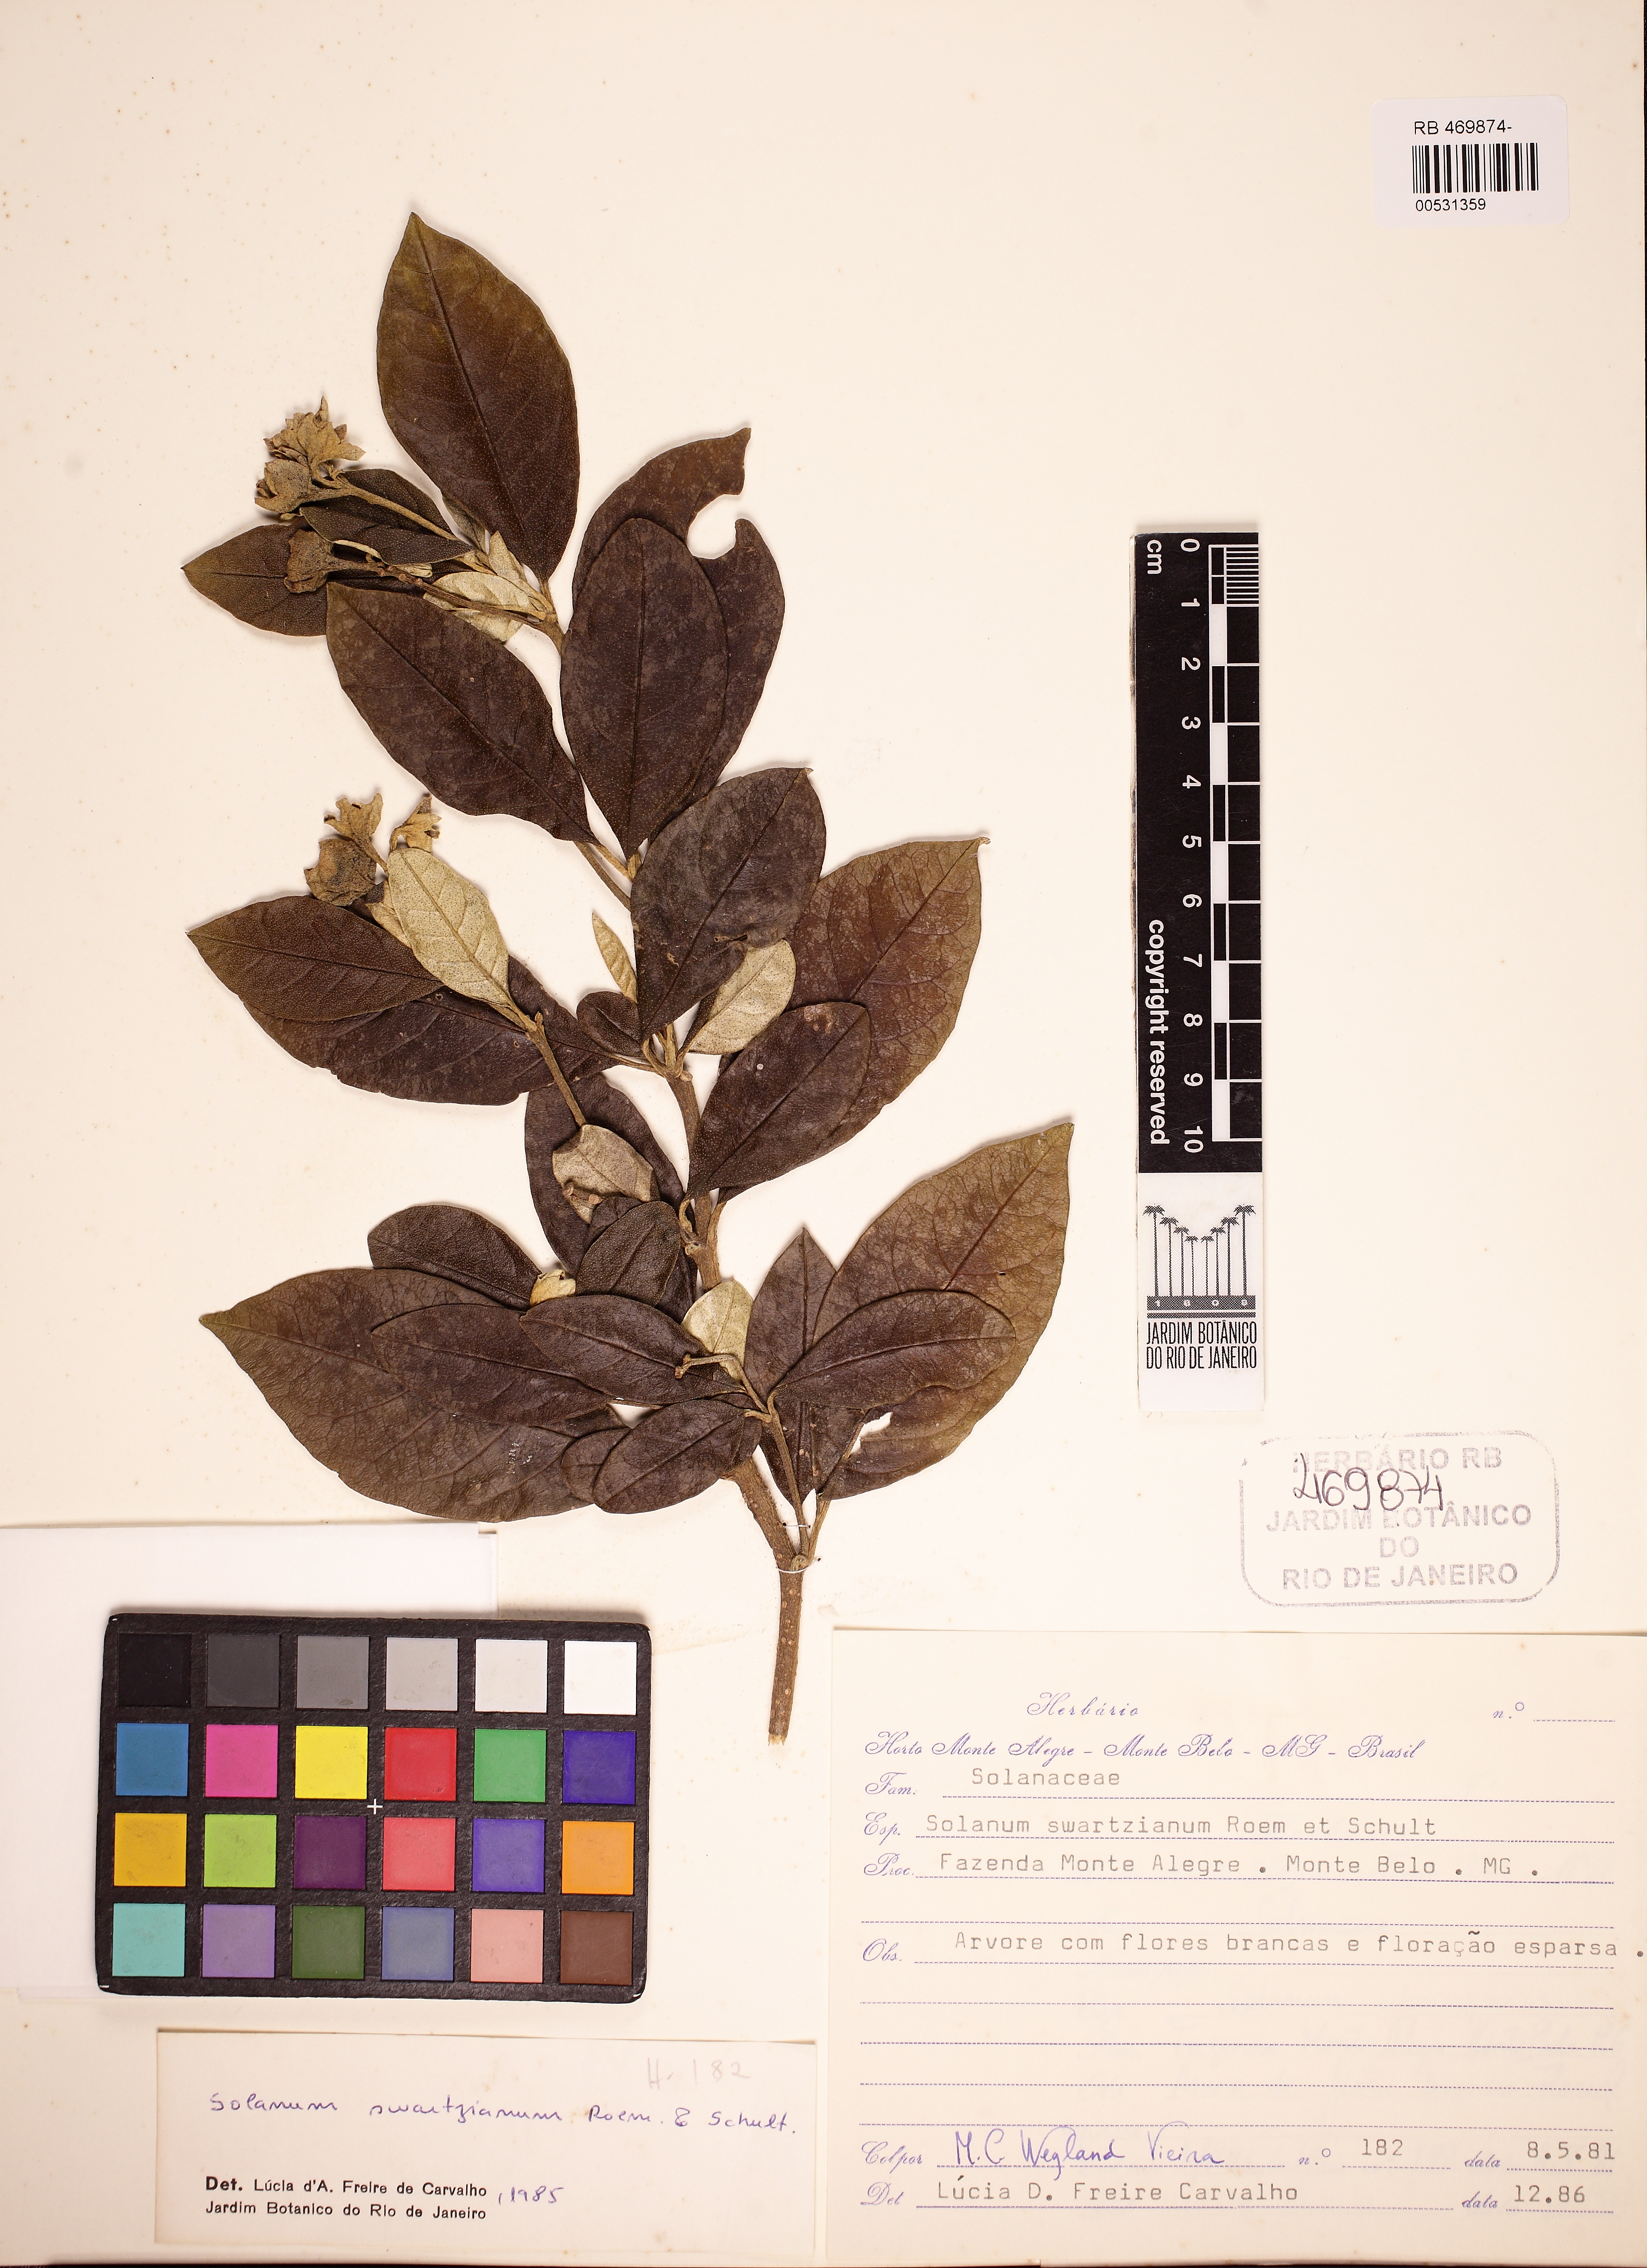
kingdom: Plantae
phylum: Tracheophyta
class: Magnoliopsida
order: Solanales
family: Solanaceae
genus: Solanum
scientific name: Solanum swartzianum
